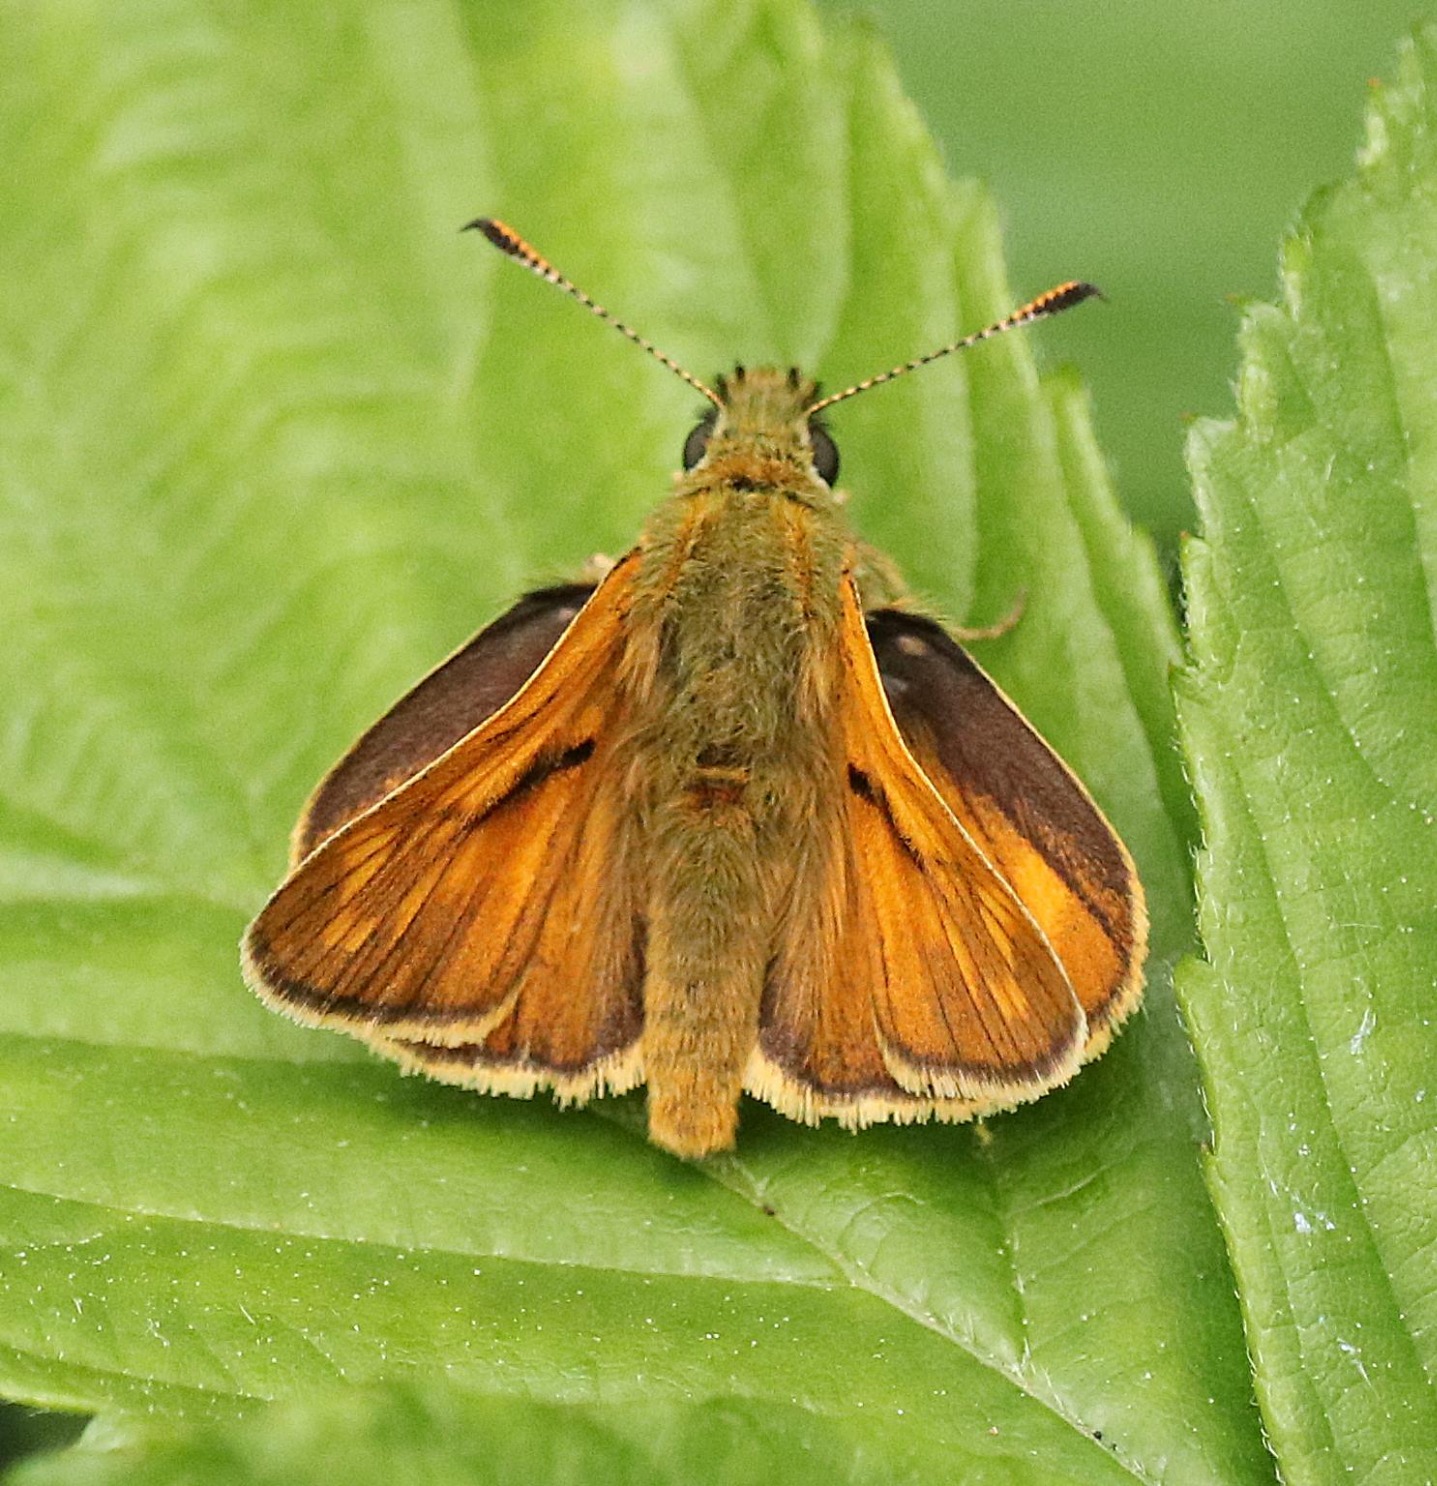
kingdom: Animalia
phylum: Arthropoda
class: Insecta
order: Lepidoptera
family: Hesperiidae
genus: Ochlodes
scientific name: Ochlodes venata
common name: Stor bredpande
